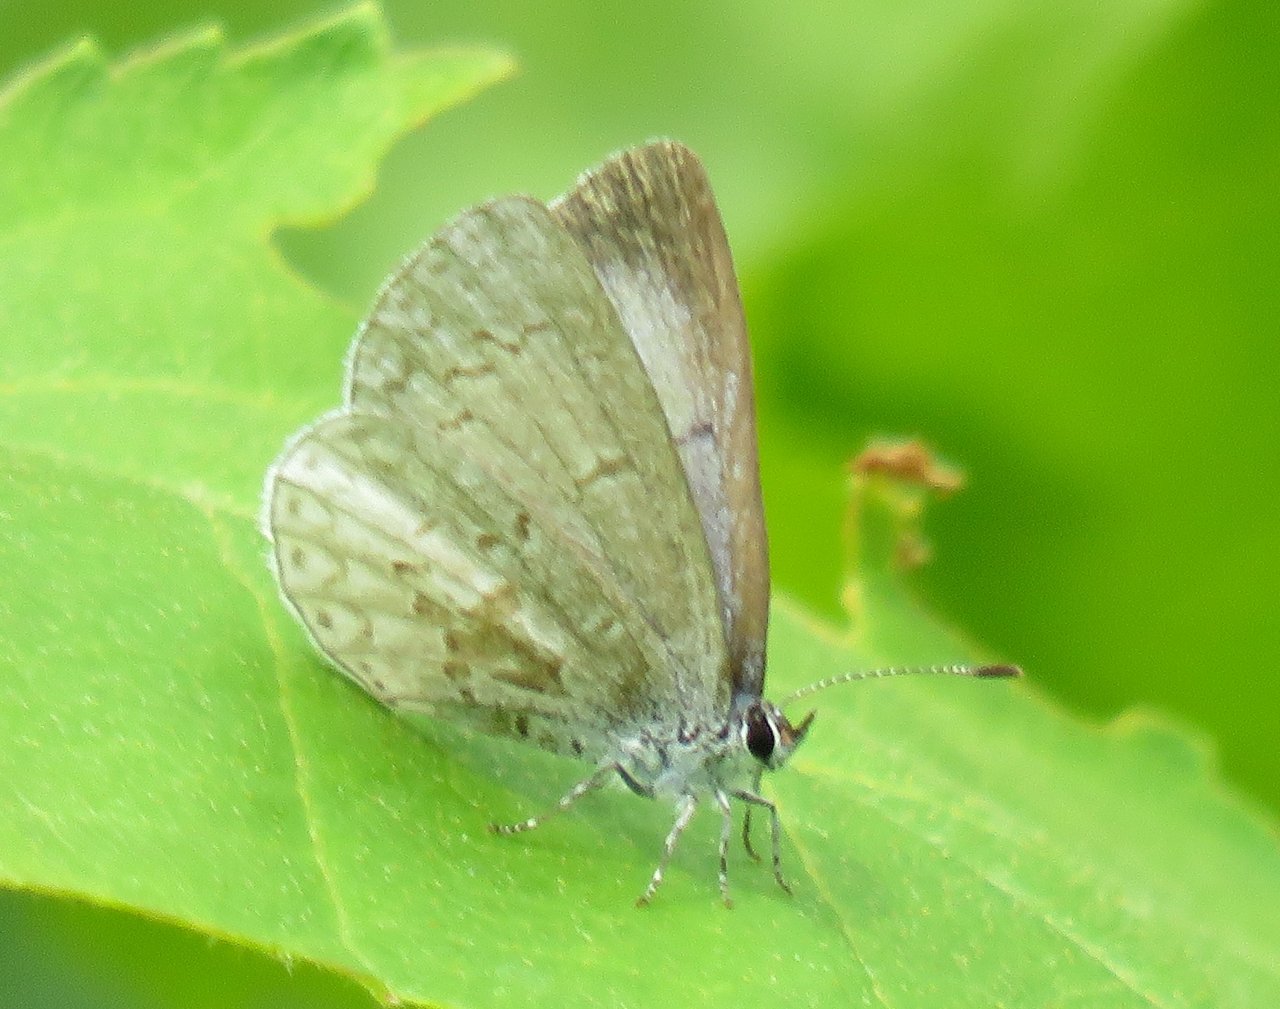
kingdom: Animalia
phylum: Arthropoda
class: Insecta
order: Lepidoptera
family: Lycaenidae
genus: Celastrina
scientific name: Celastrina lucia
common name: Northern Spring Azure
